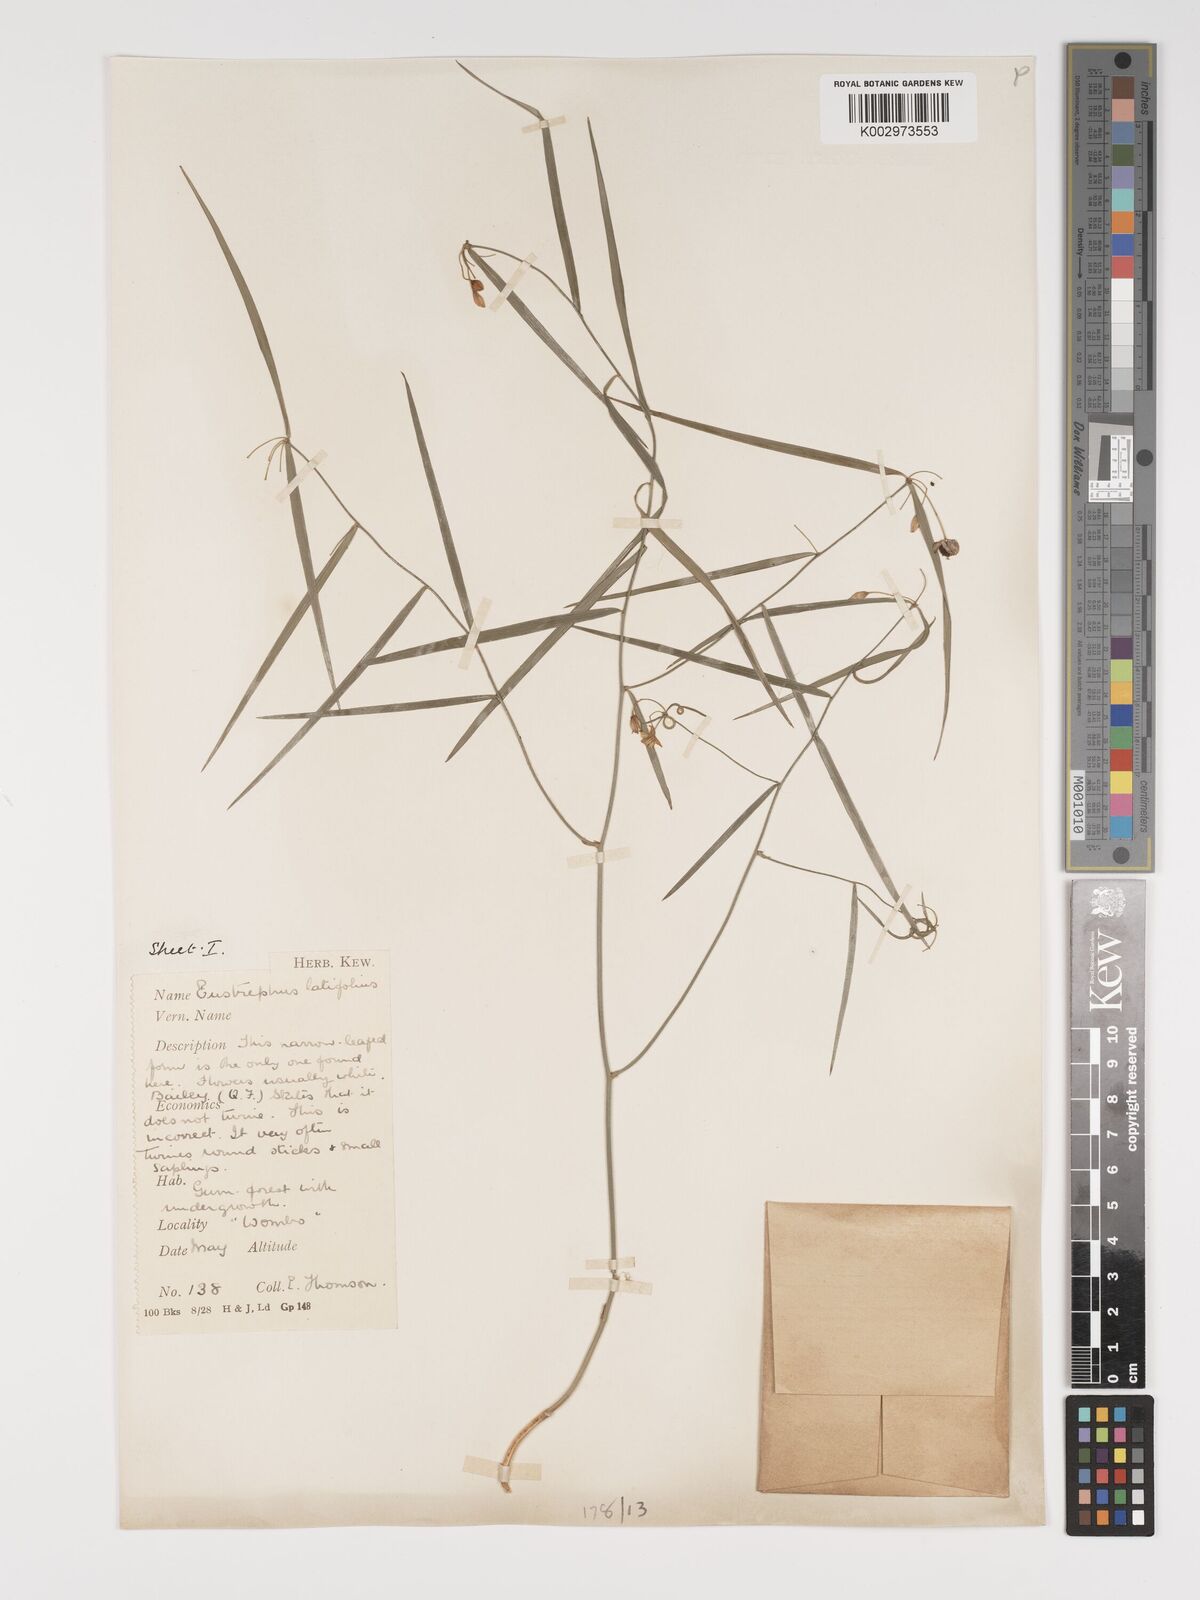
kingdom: Plantae
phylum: Tracheophyta
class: Liliopsida
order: Asparagales
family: Asparagaceae
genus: Eustrephus
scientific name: Eustrephus latifolius
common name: Orangevine
